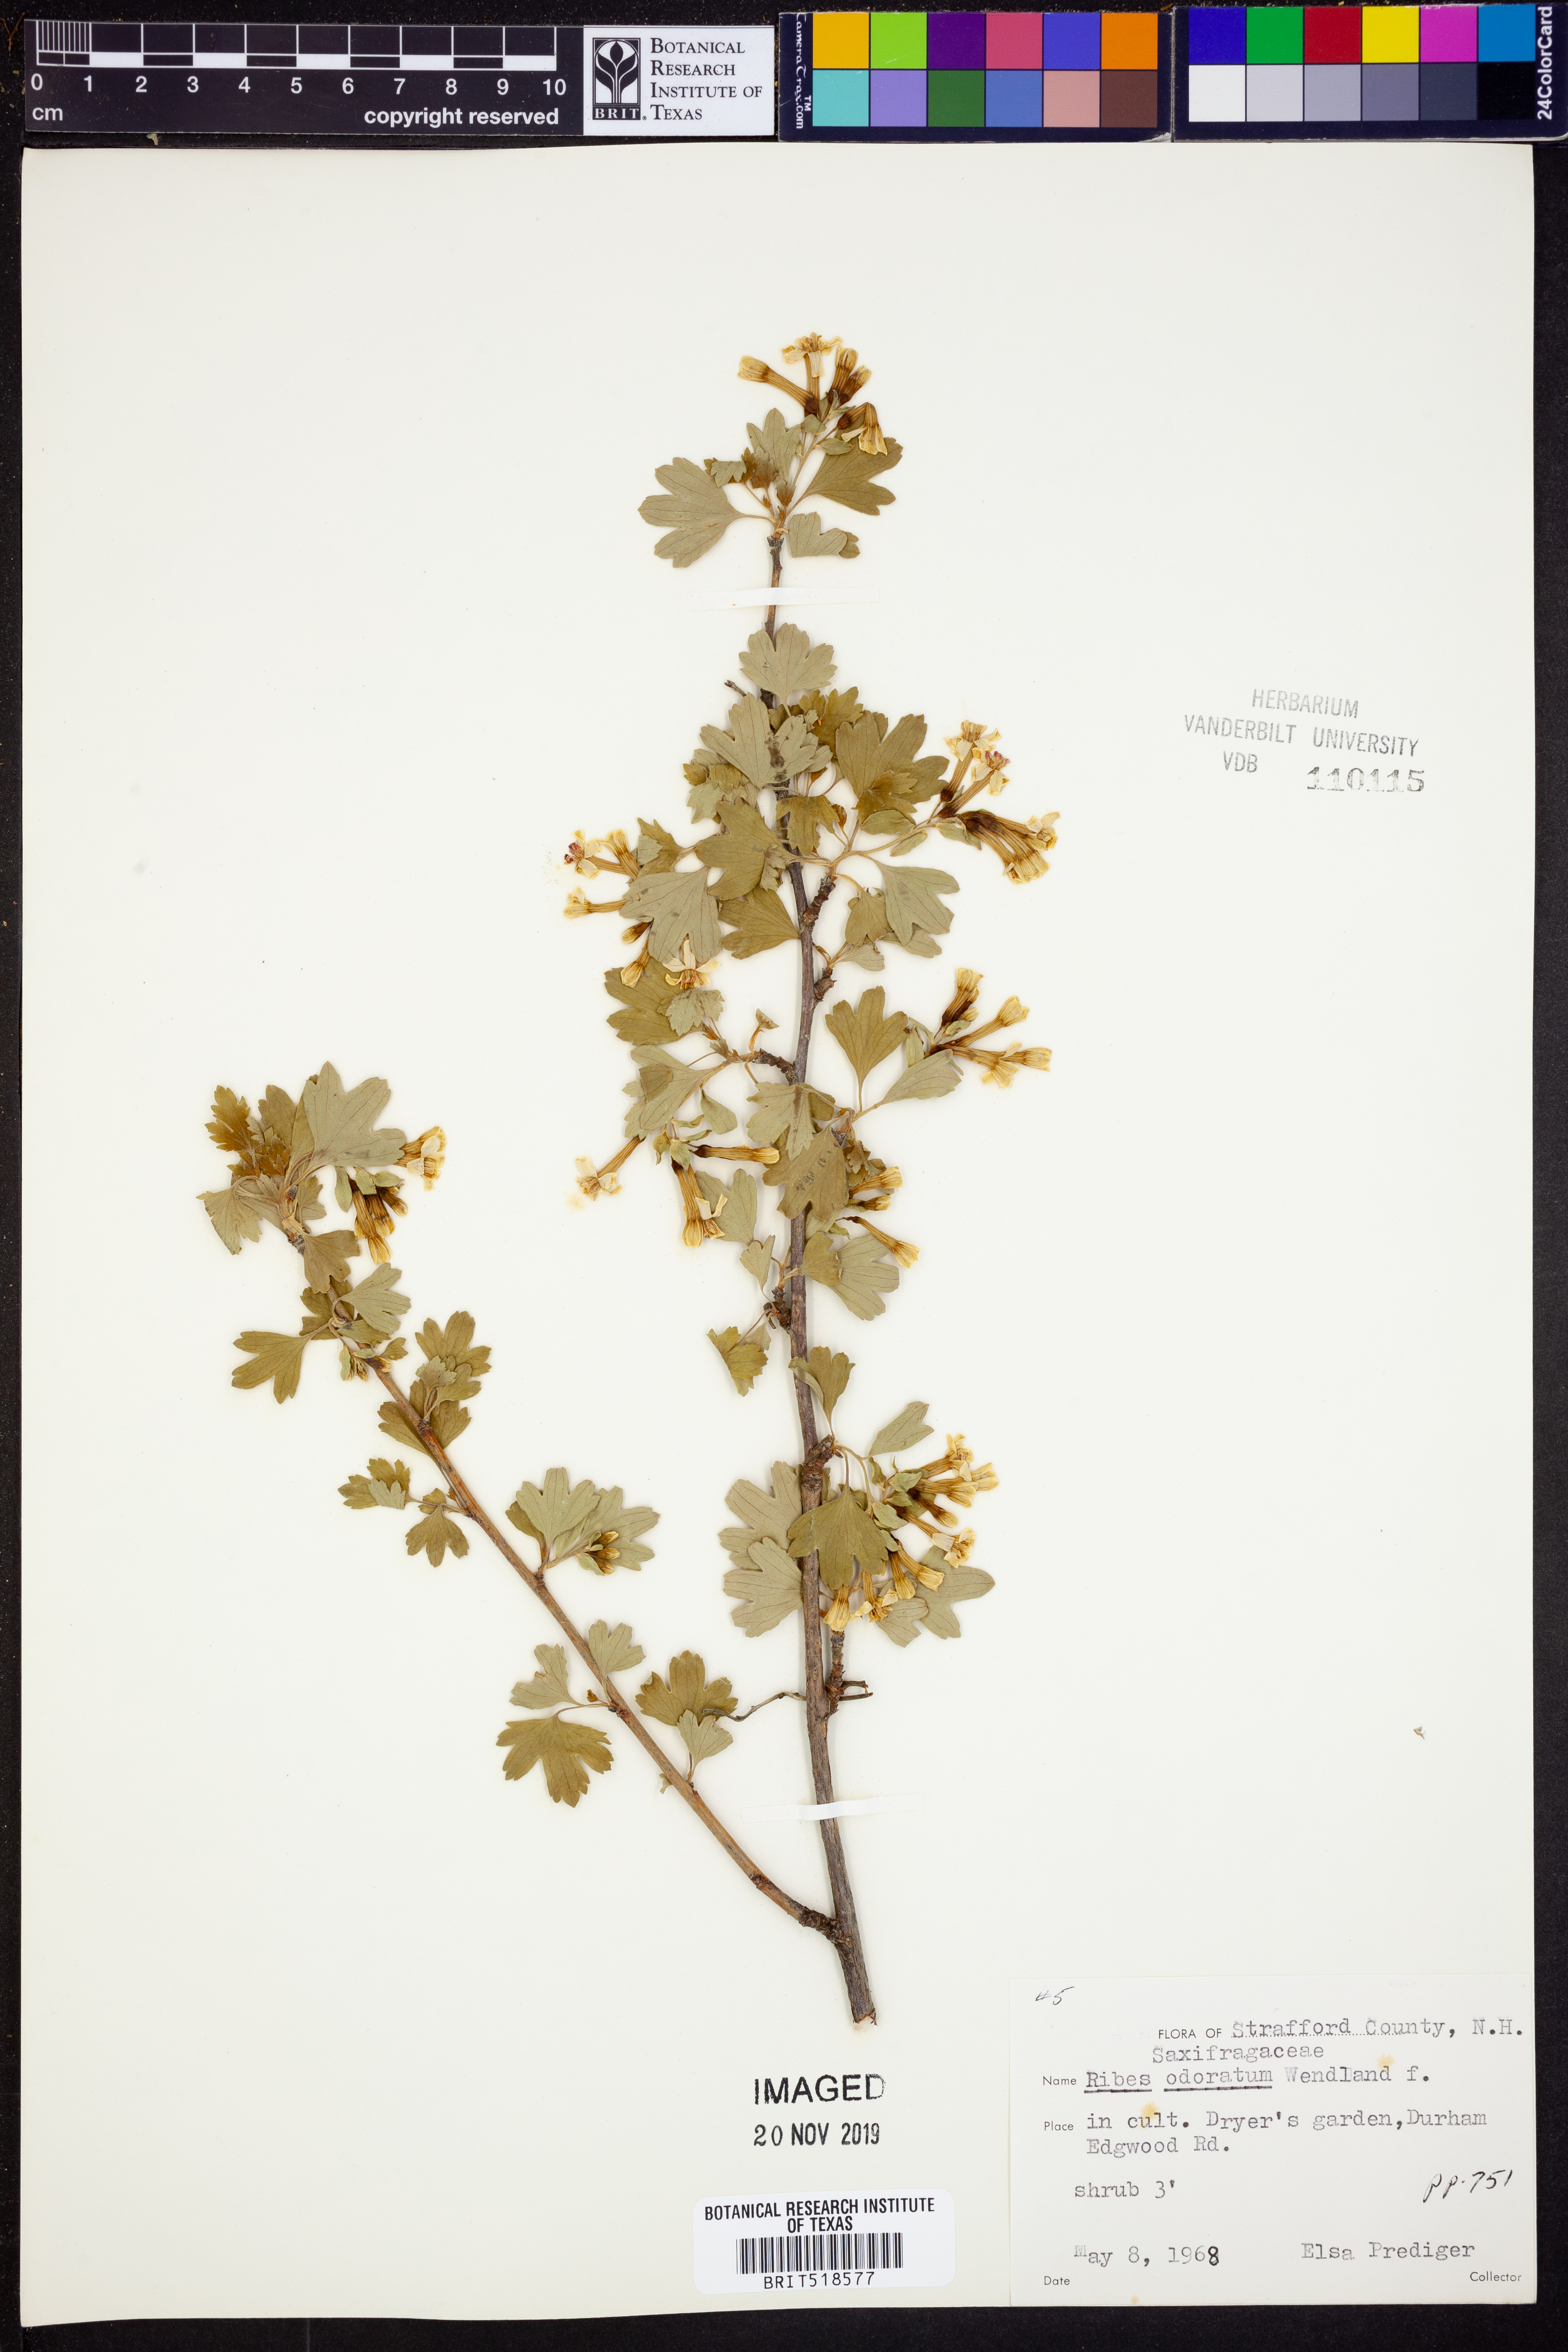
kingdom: Plantae
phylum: Tracheophyta
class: Magnoliopsida
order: Saxifragales
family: Grossulariaceae
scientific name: Grossulariaceae
